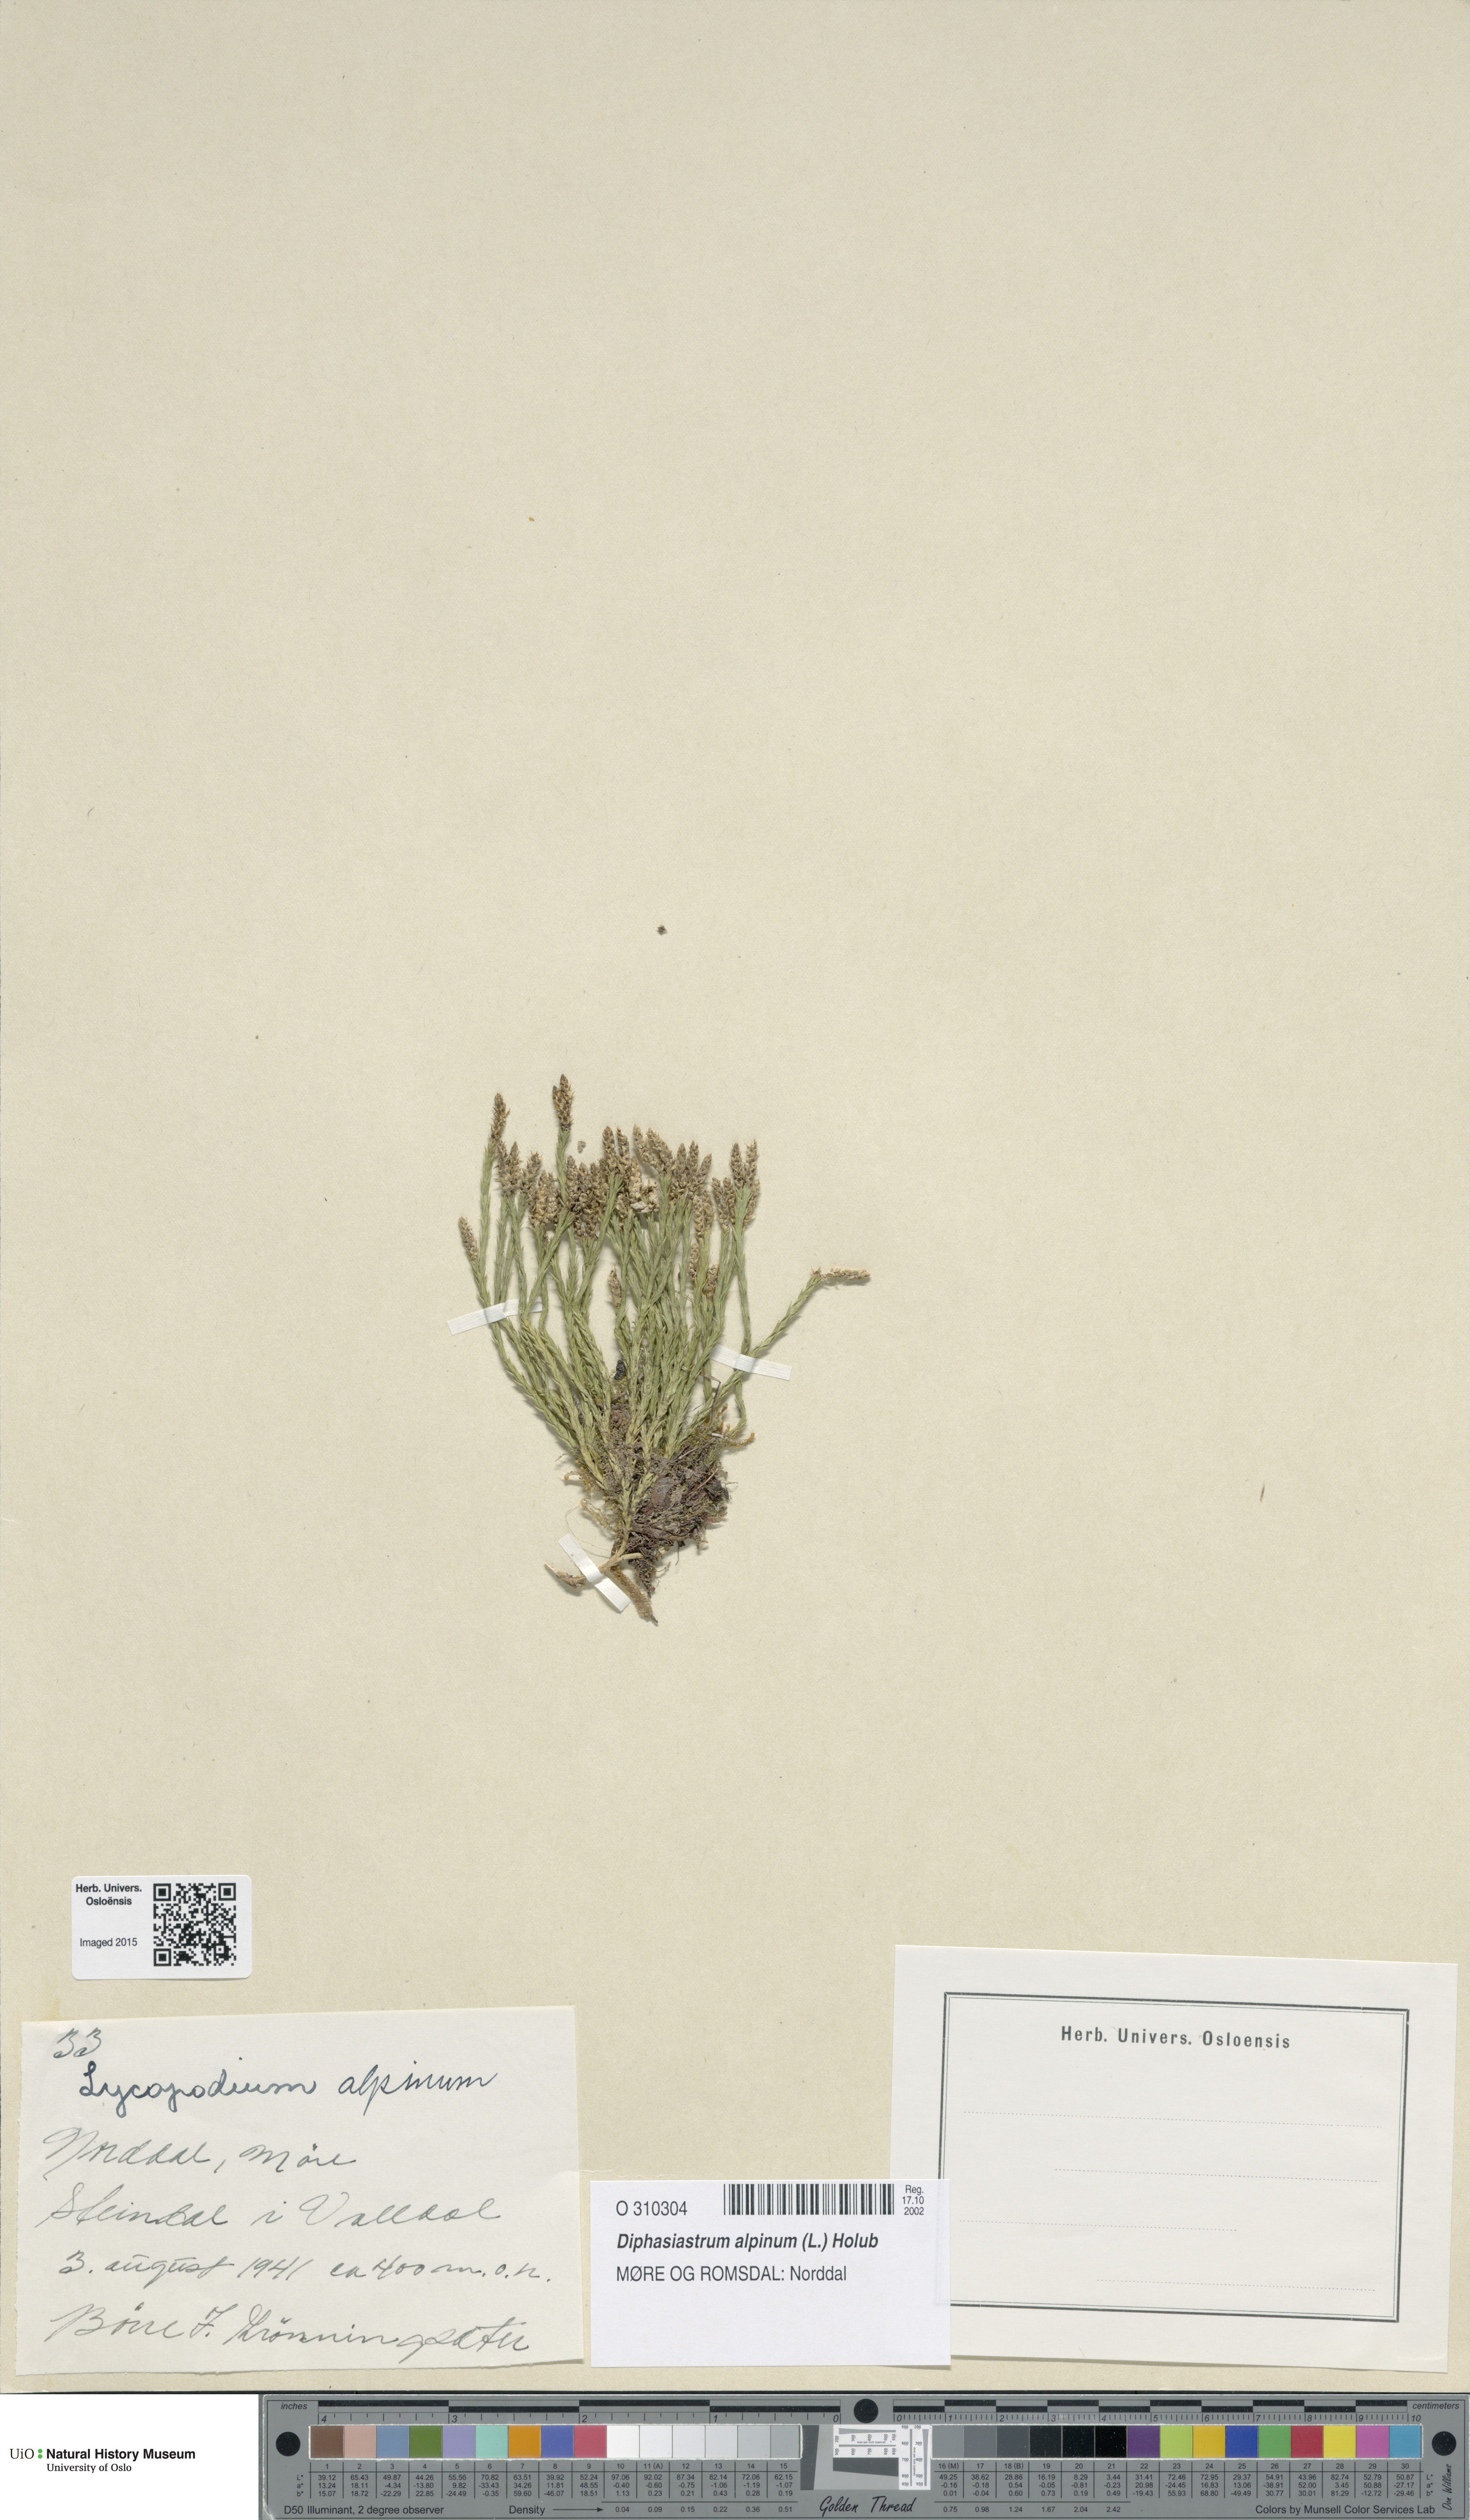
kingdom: Plantae
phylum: Tracheophyta
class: Lycopodiopsida
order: Lycopodiales
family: Lycopodiaceae
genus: Diphasiastrum
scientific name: Diphasiastrum alpinum
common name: Alpine clubmoss
